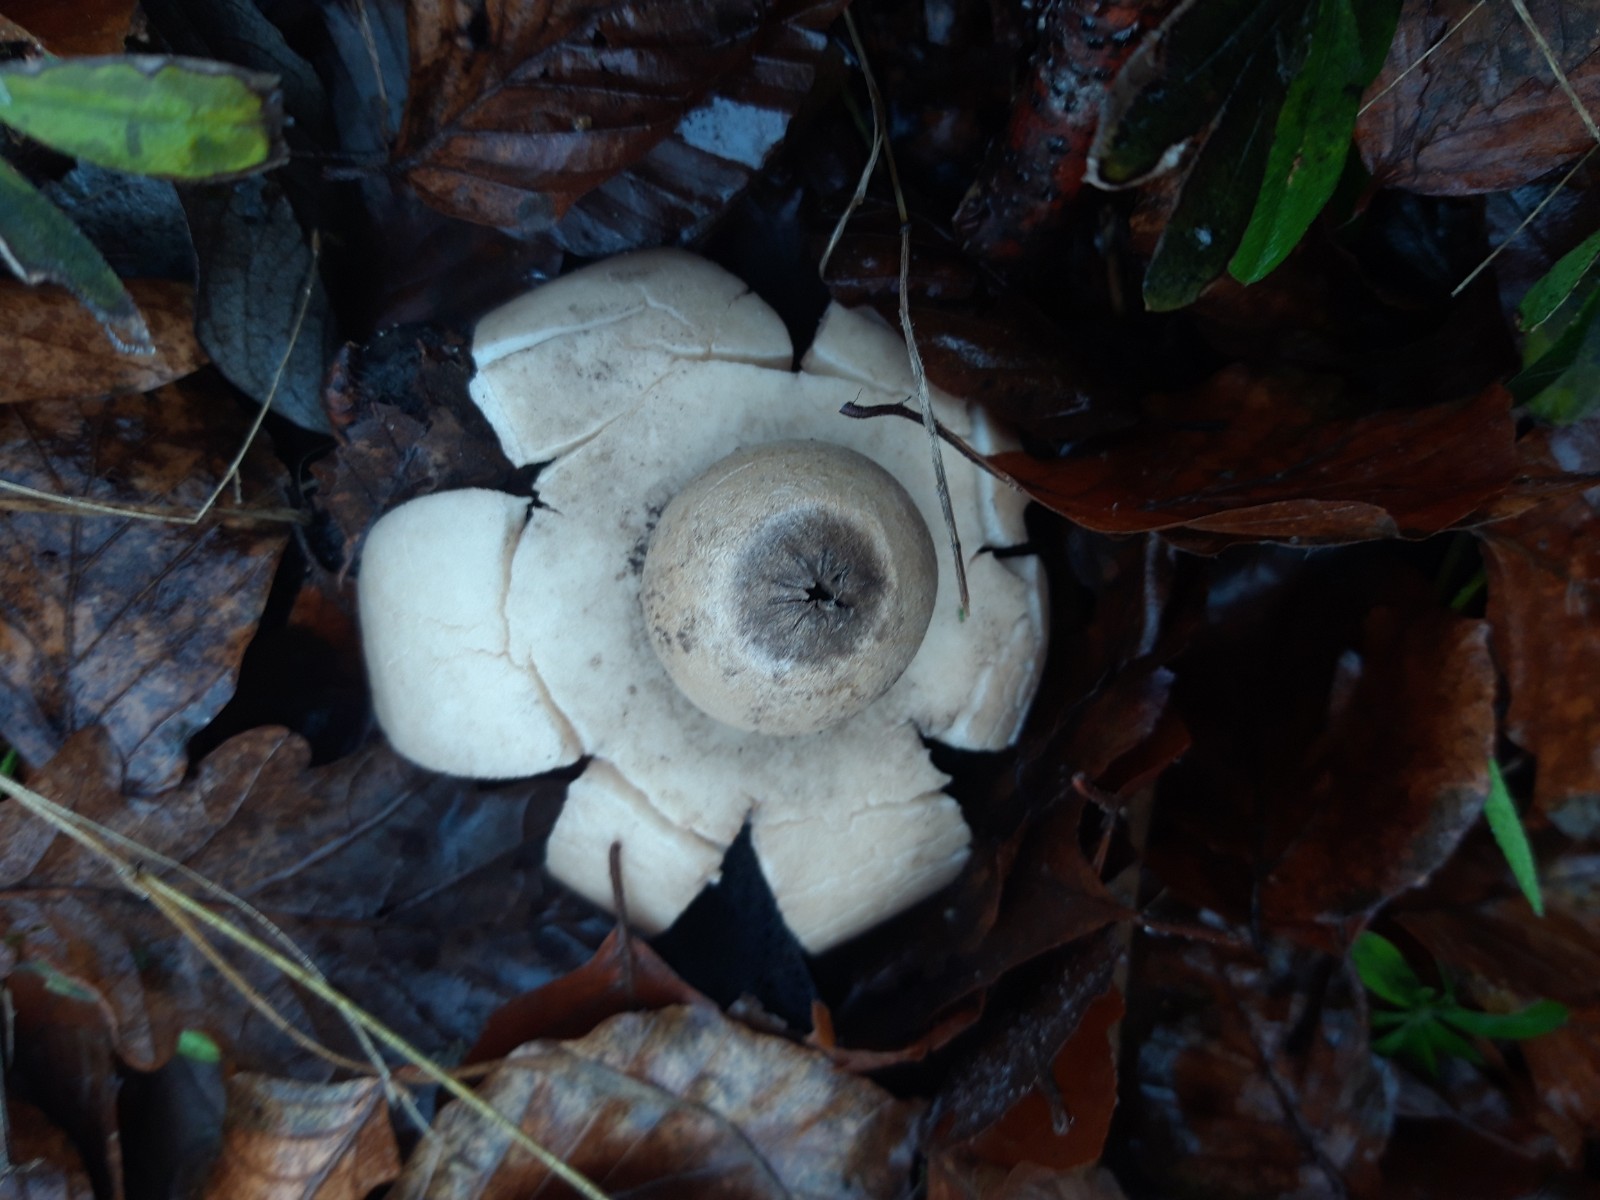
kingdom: Fungi
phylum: Basidiomycota
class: Agaricomycetes
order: Geastrales
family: Geastraceae
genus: Geastrum
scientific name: Geastrum michelianum
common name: kødet stjernebold
